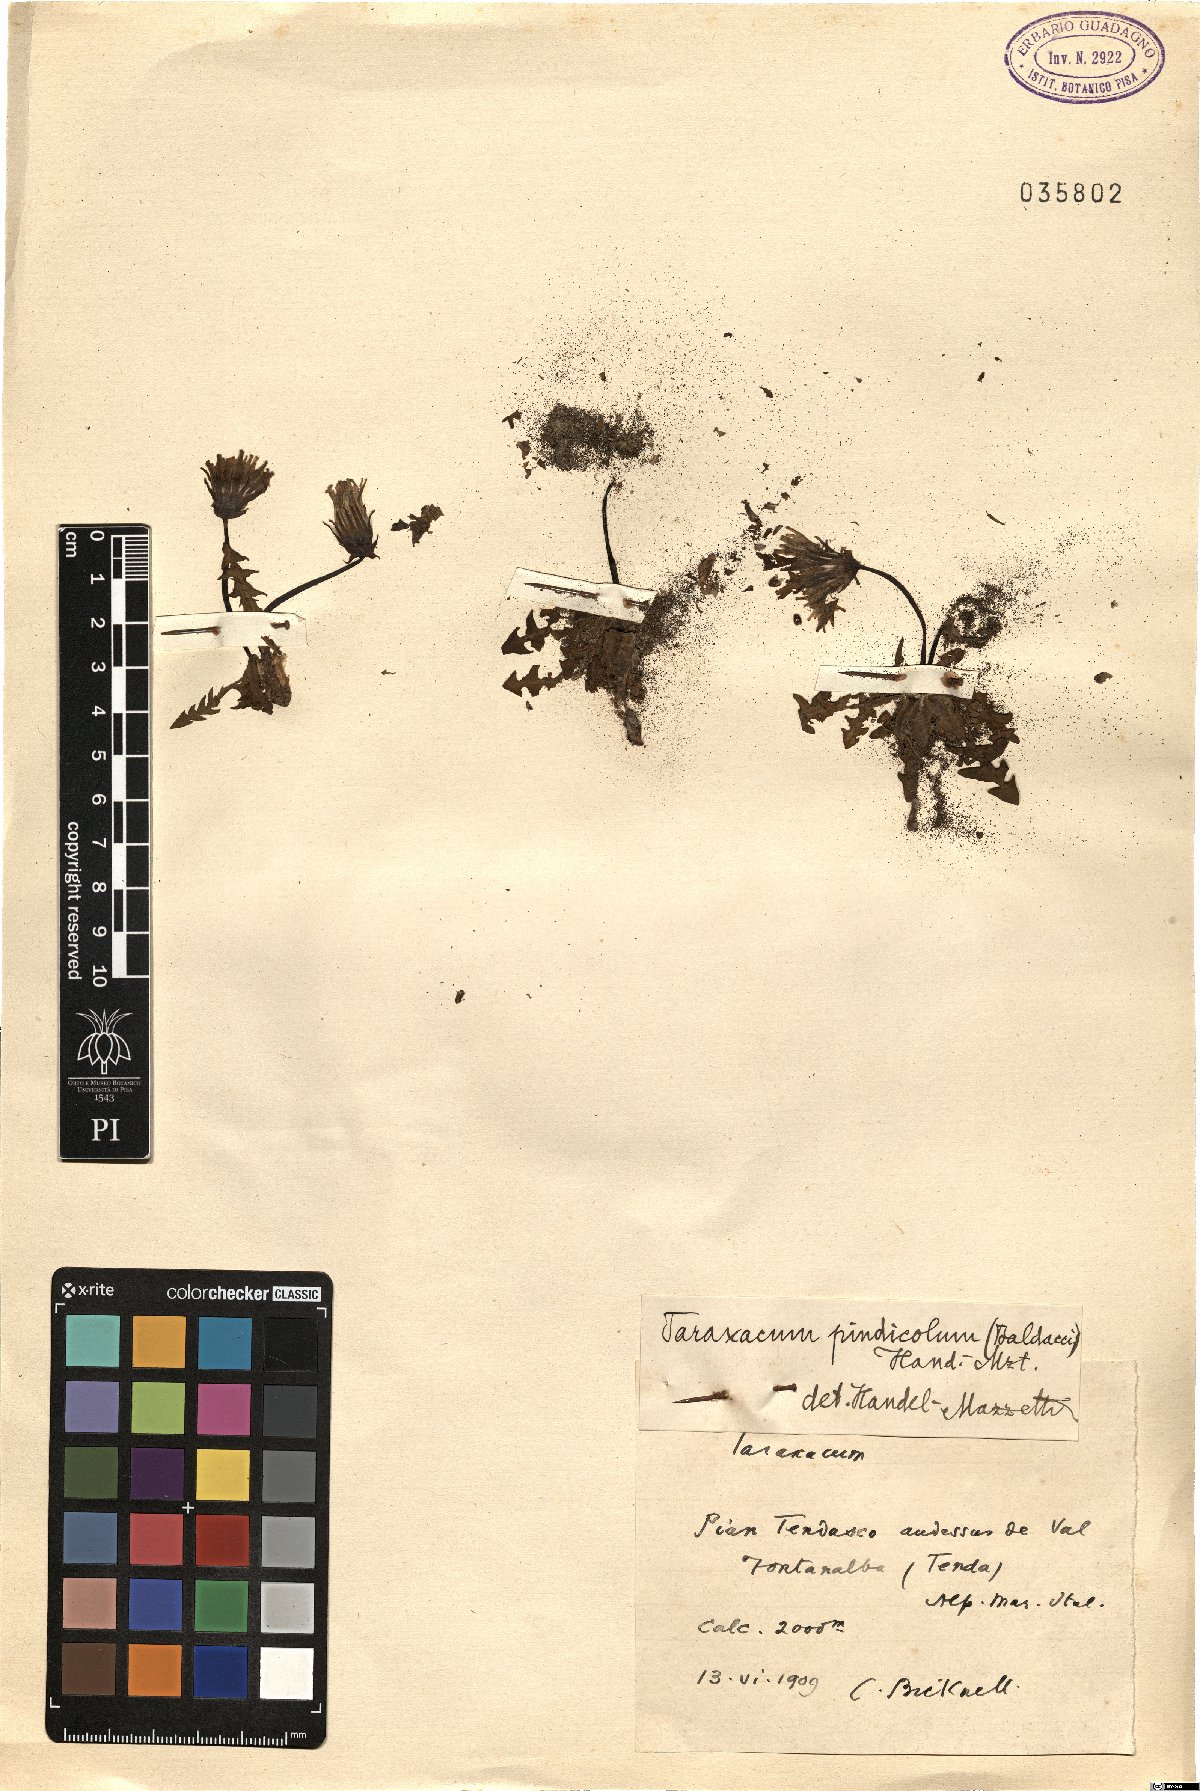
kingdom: Plantae
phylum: Tracheophyta
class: Magnoliopsida
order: Asterales
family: Asteraceae
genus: Taraxacum
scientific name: Taraxacum pindicola
